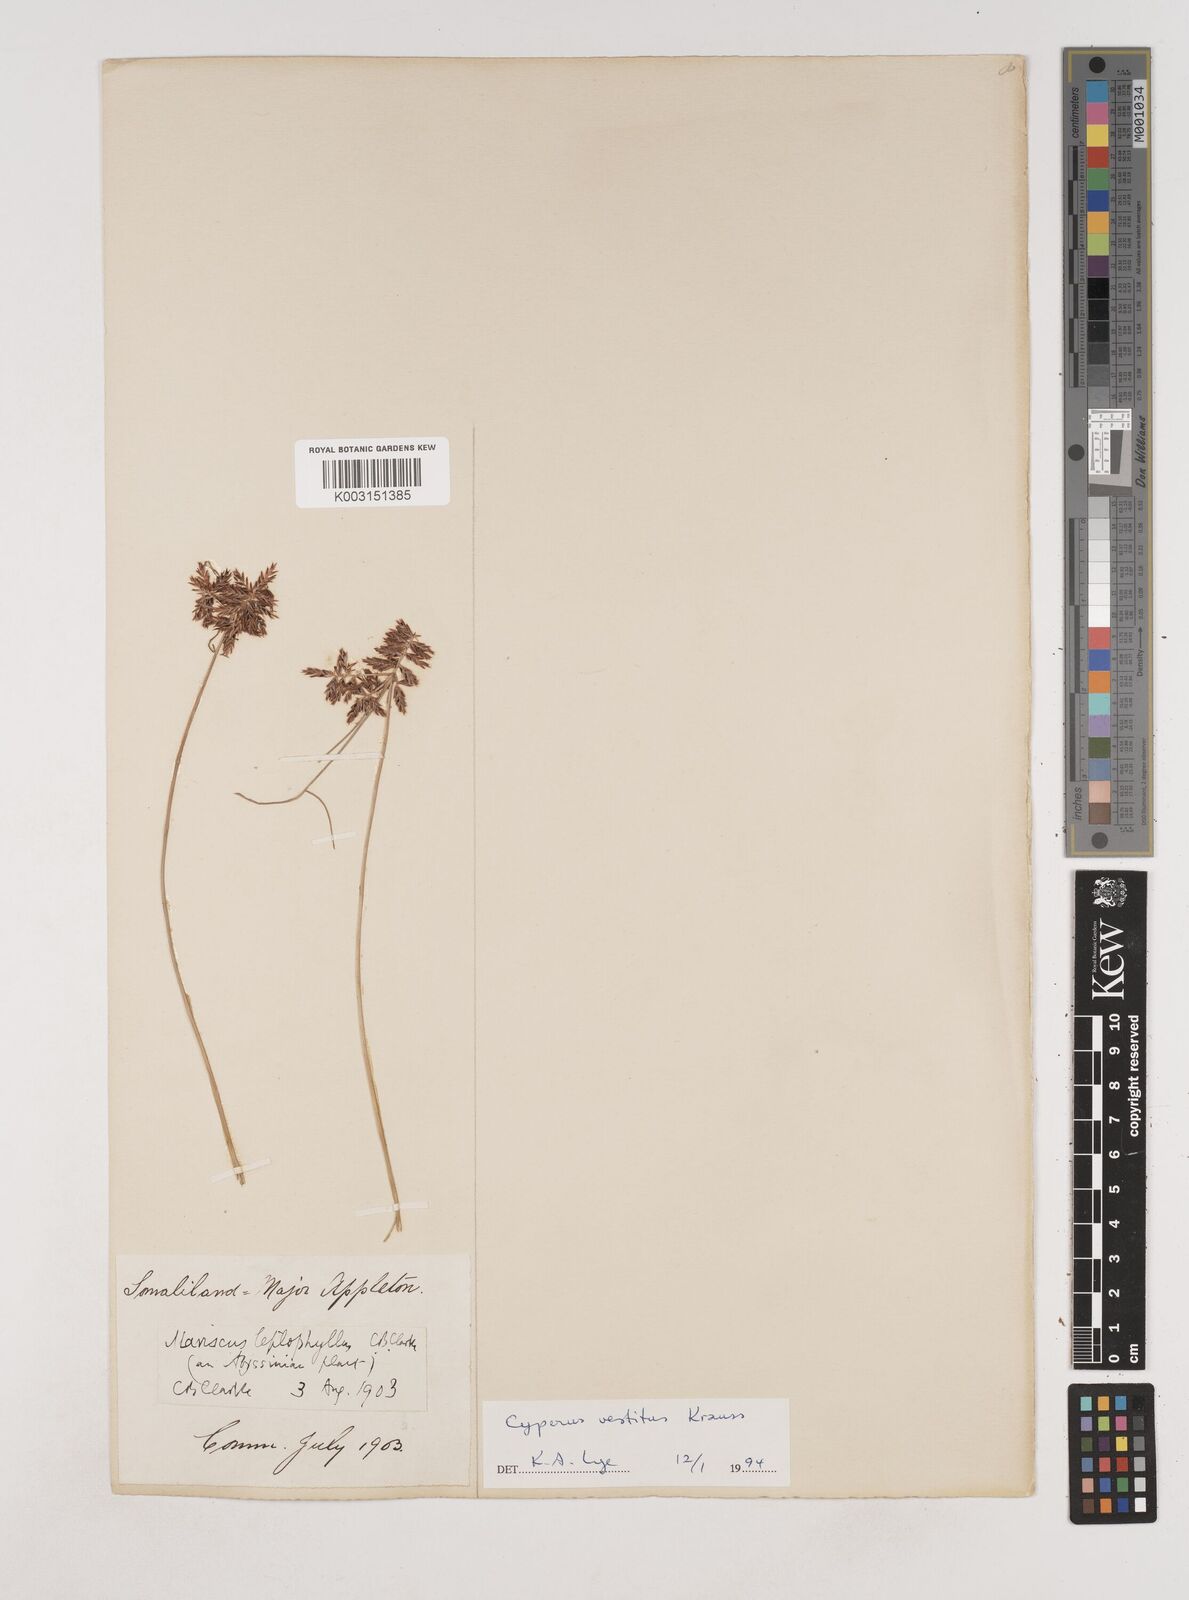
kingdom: Plantae
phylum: Tracheophyta
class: Liliopsida
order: Poales
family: Cyperaceae
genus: Cyperus
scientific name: Cyperus vestitus
